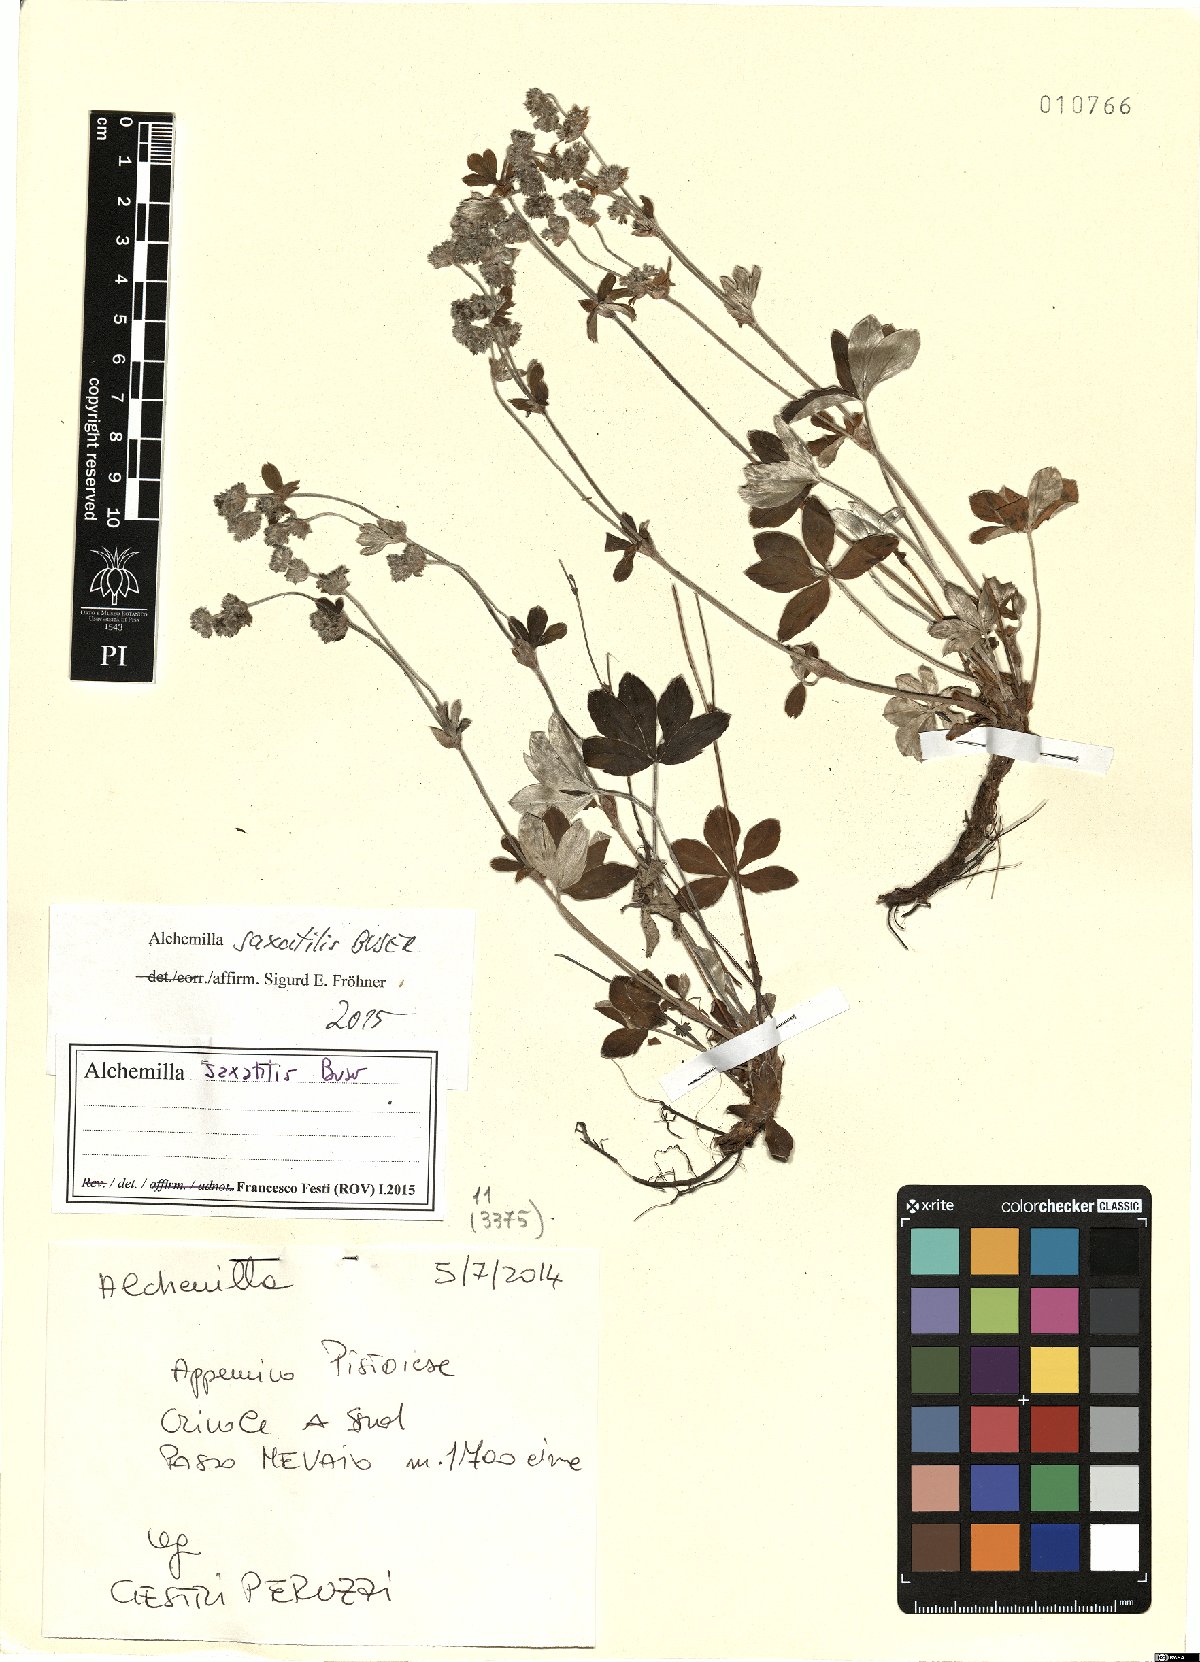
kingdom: Plantae
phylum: Tracheophyta
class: Magnoliopsida
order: Rosales
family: Rosaceae
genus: Alchemilla
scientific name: Alchemilla saxatilis
